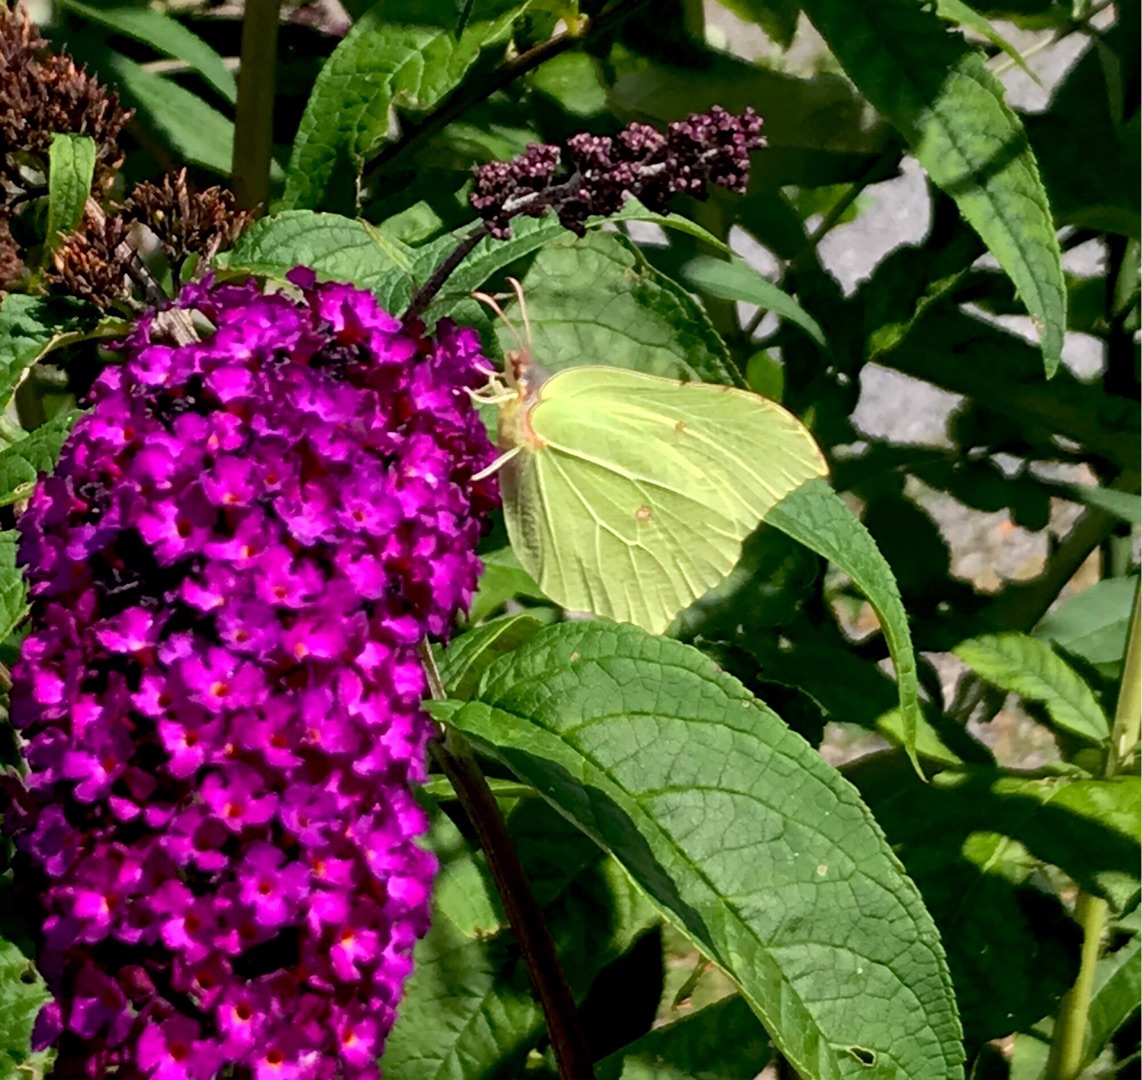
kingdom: Animalia
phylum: Arthropoda
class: Insecta
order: Lepidoptera
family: Pieridae
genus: Gonepteryx
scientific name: Gonepteryx rhamni
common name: Citronsommerfugl
